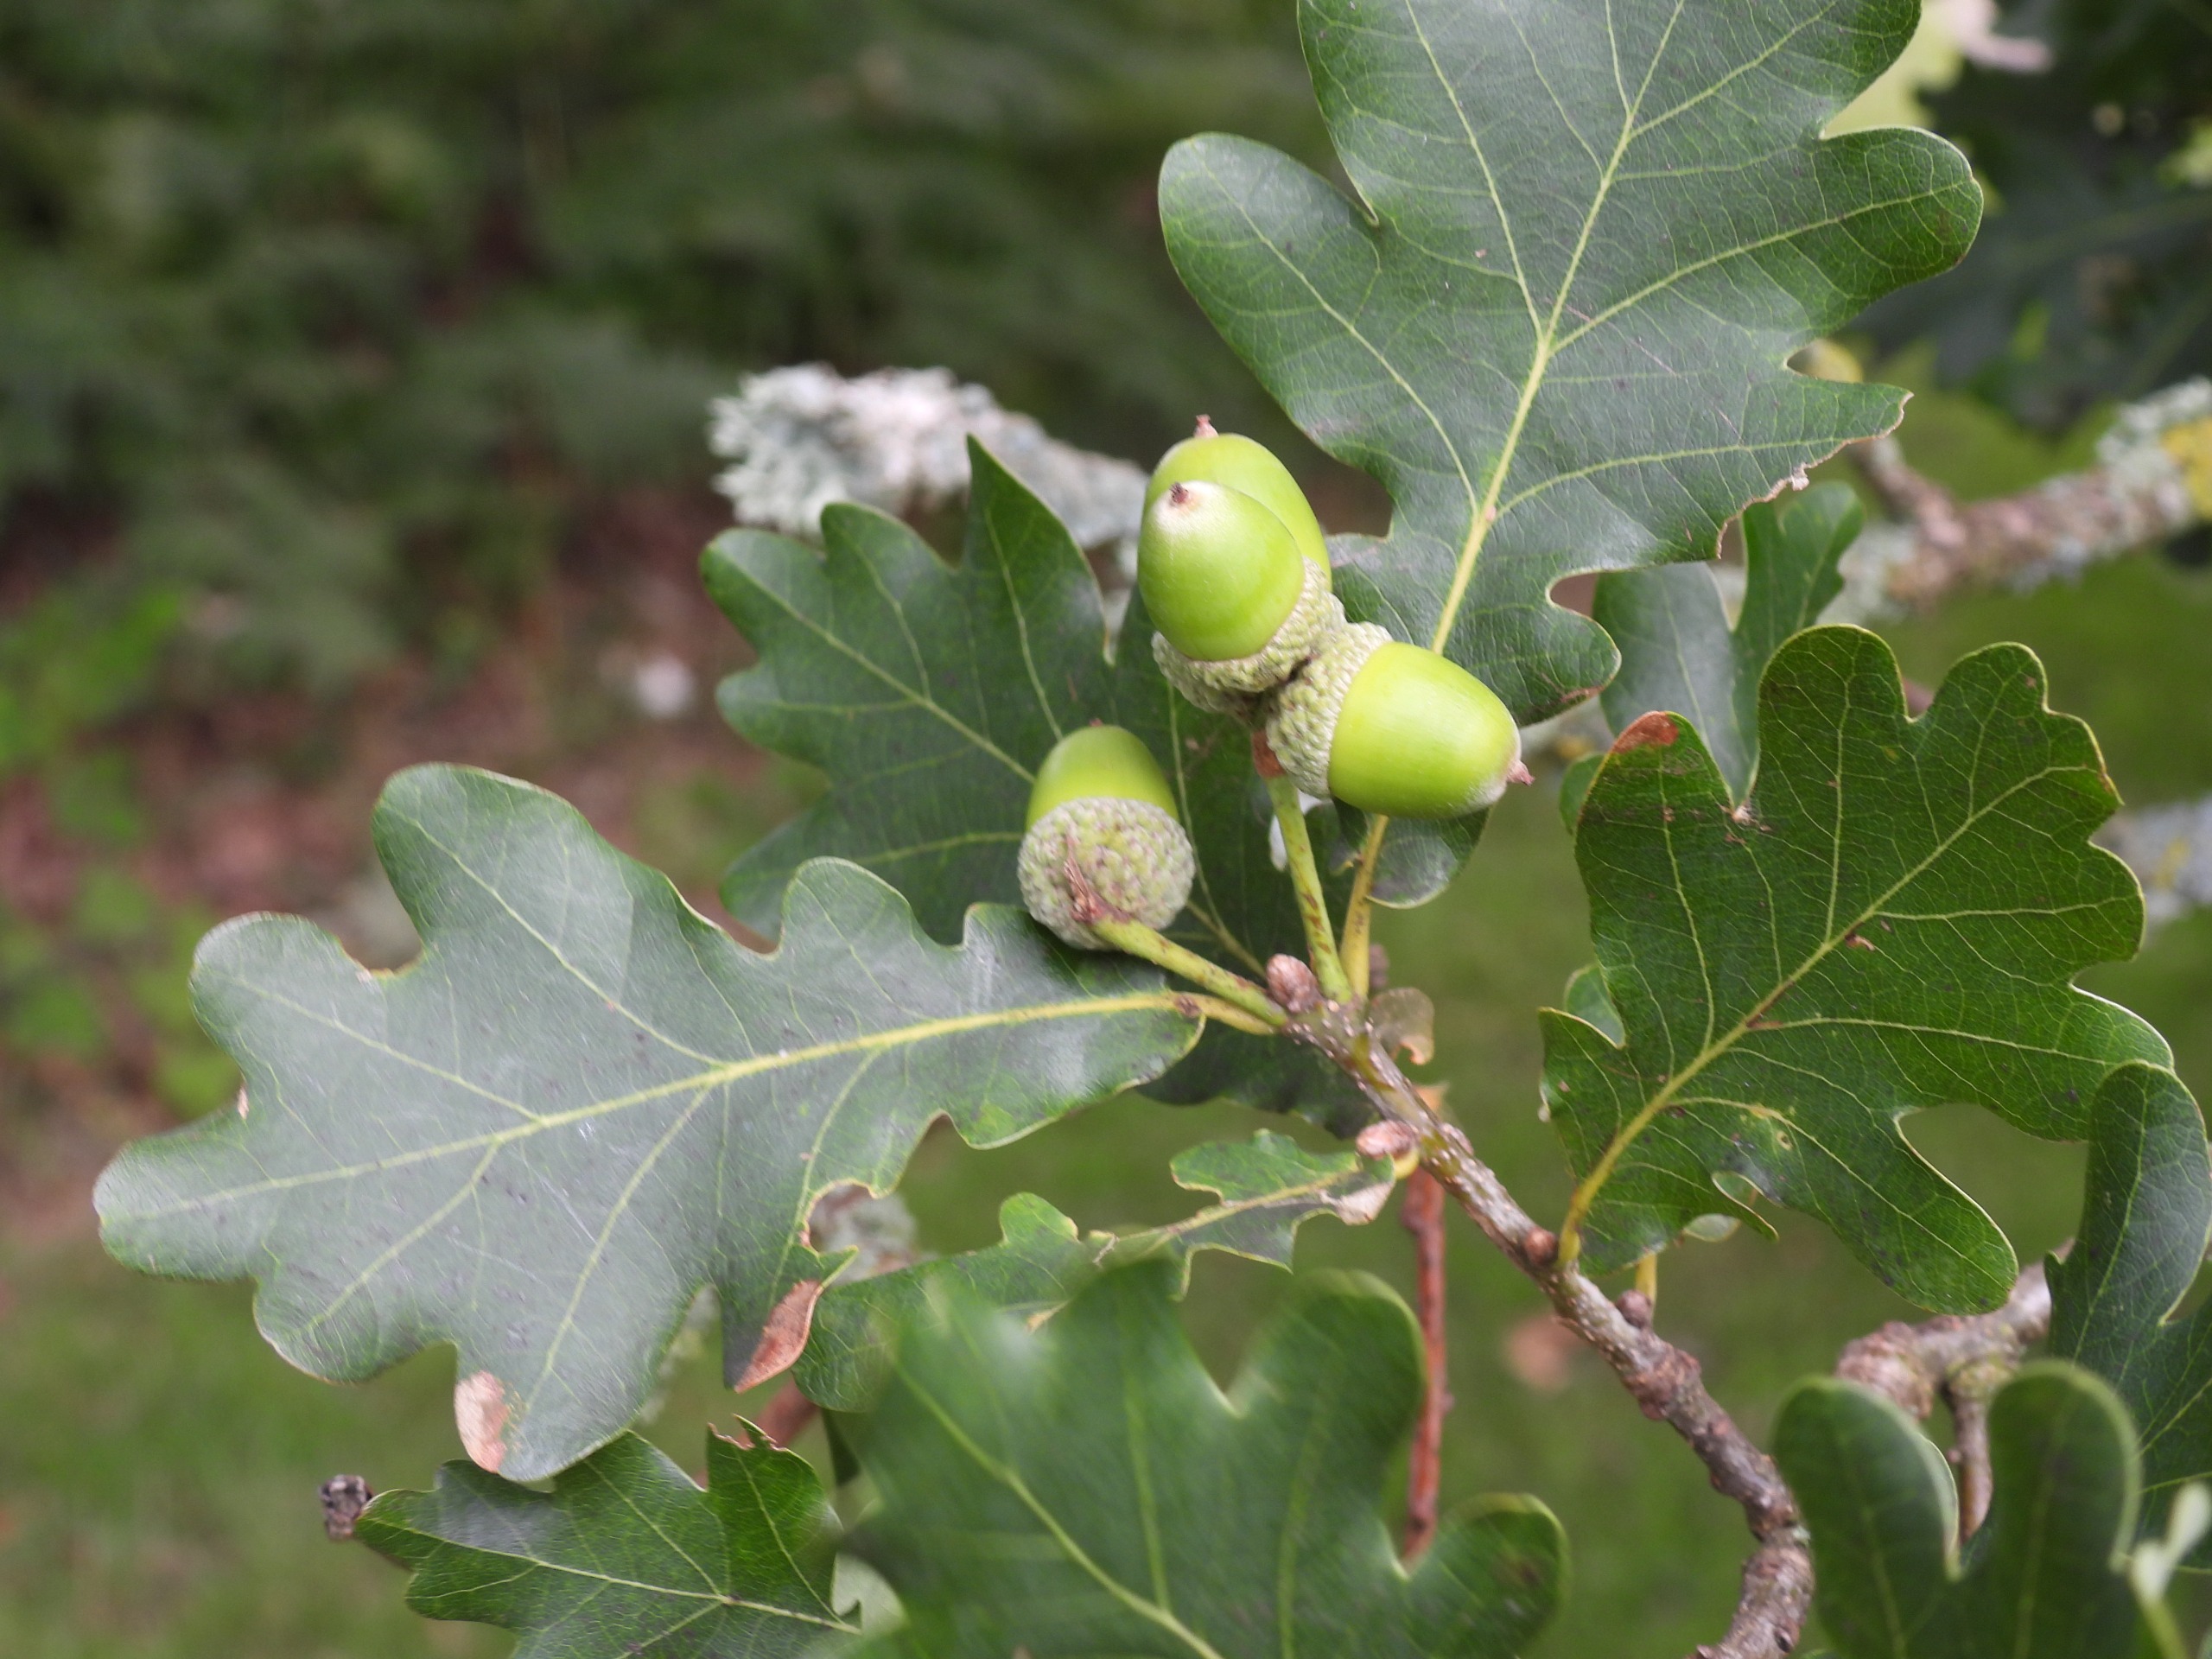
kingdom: Plantae
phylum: Tracheophyta
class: Magnoliopsida
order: Fagales
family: Fagaceae
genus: Quercus
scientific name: Quercus robur
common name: Stilk-eg/almindelig eg
